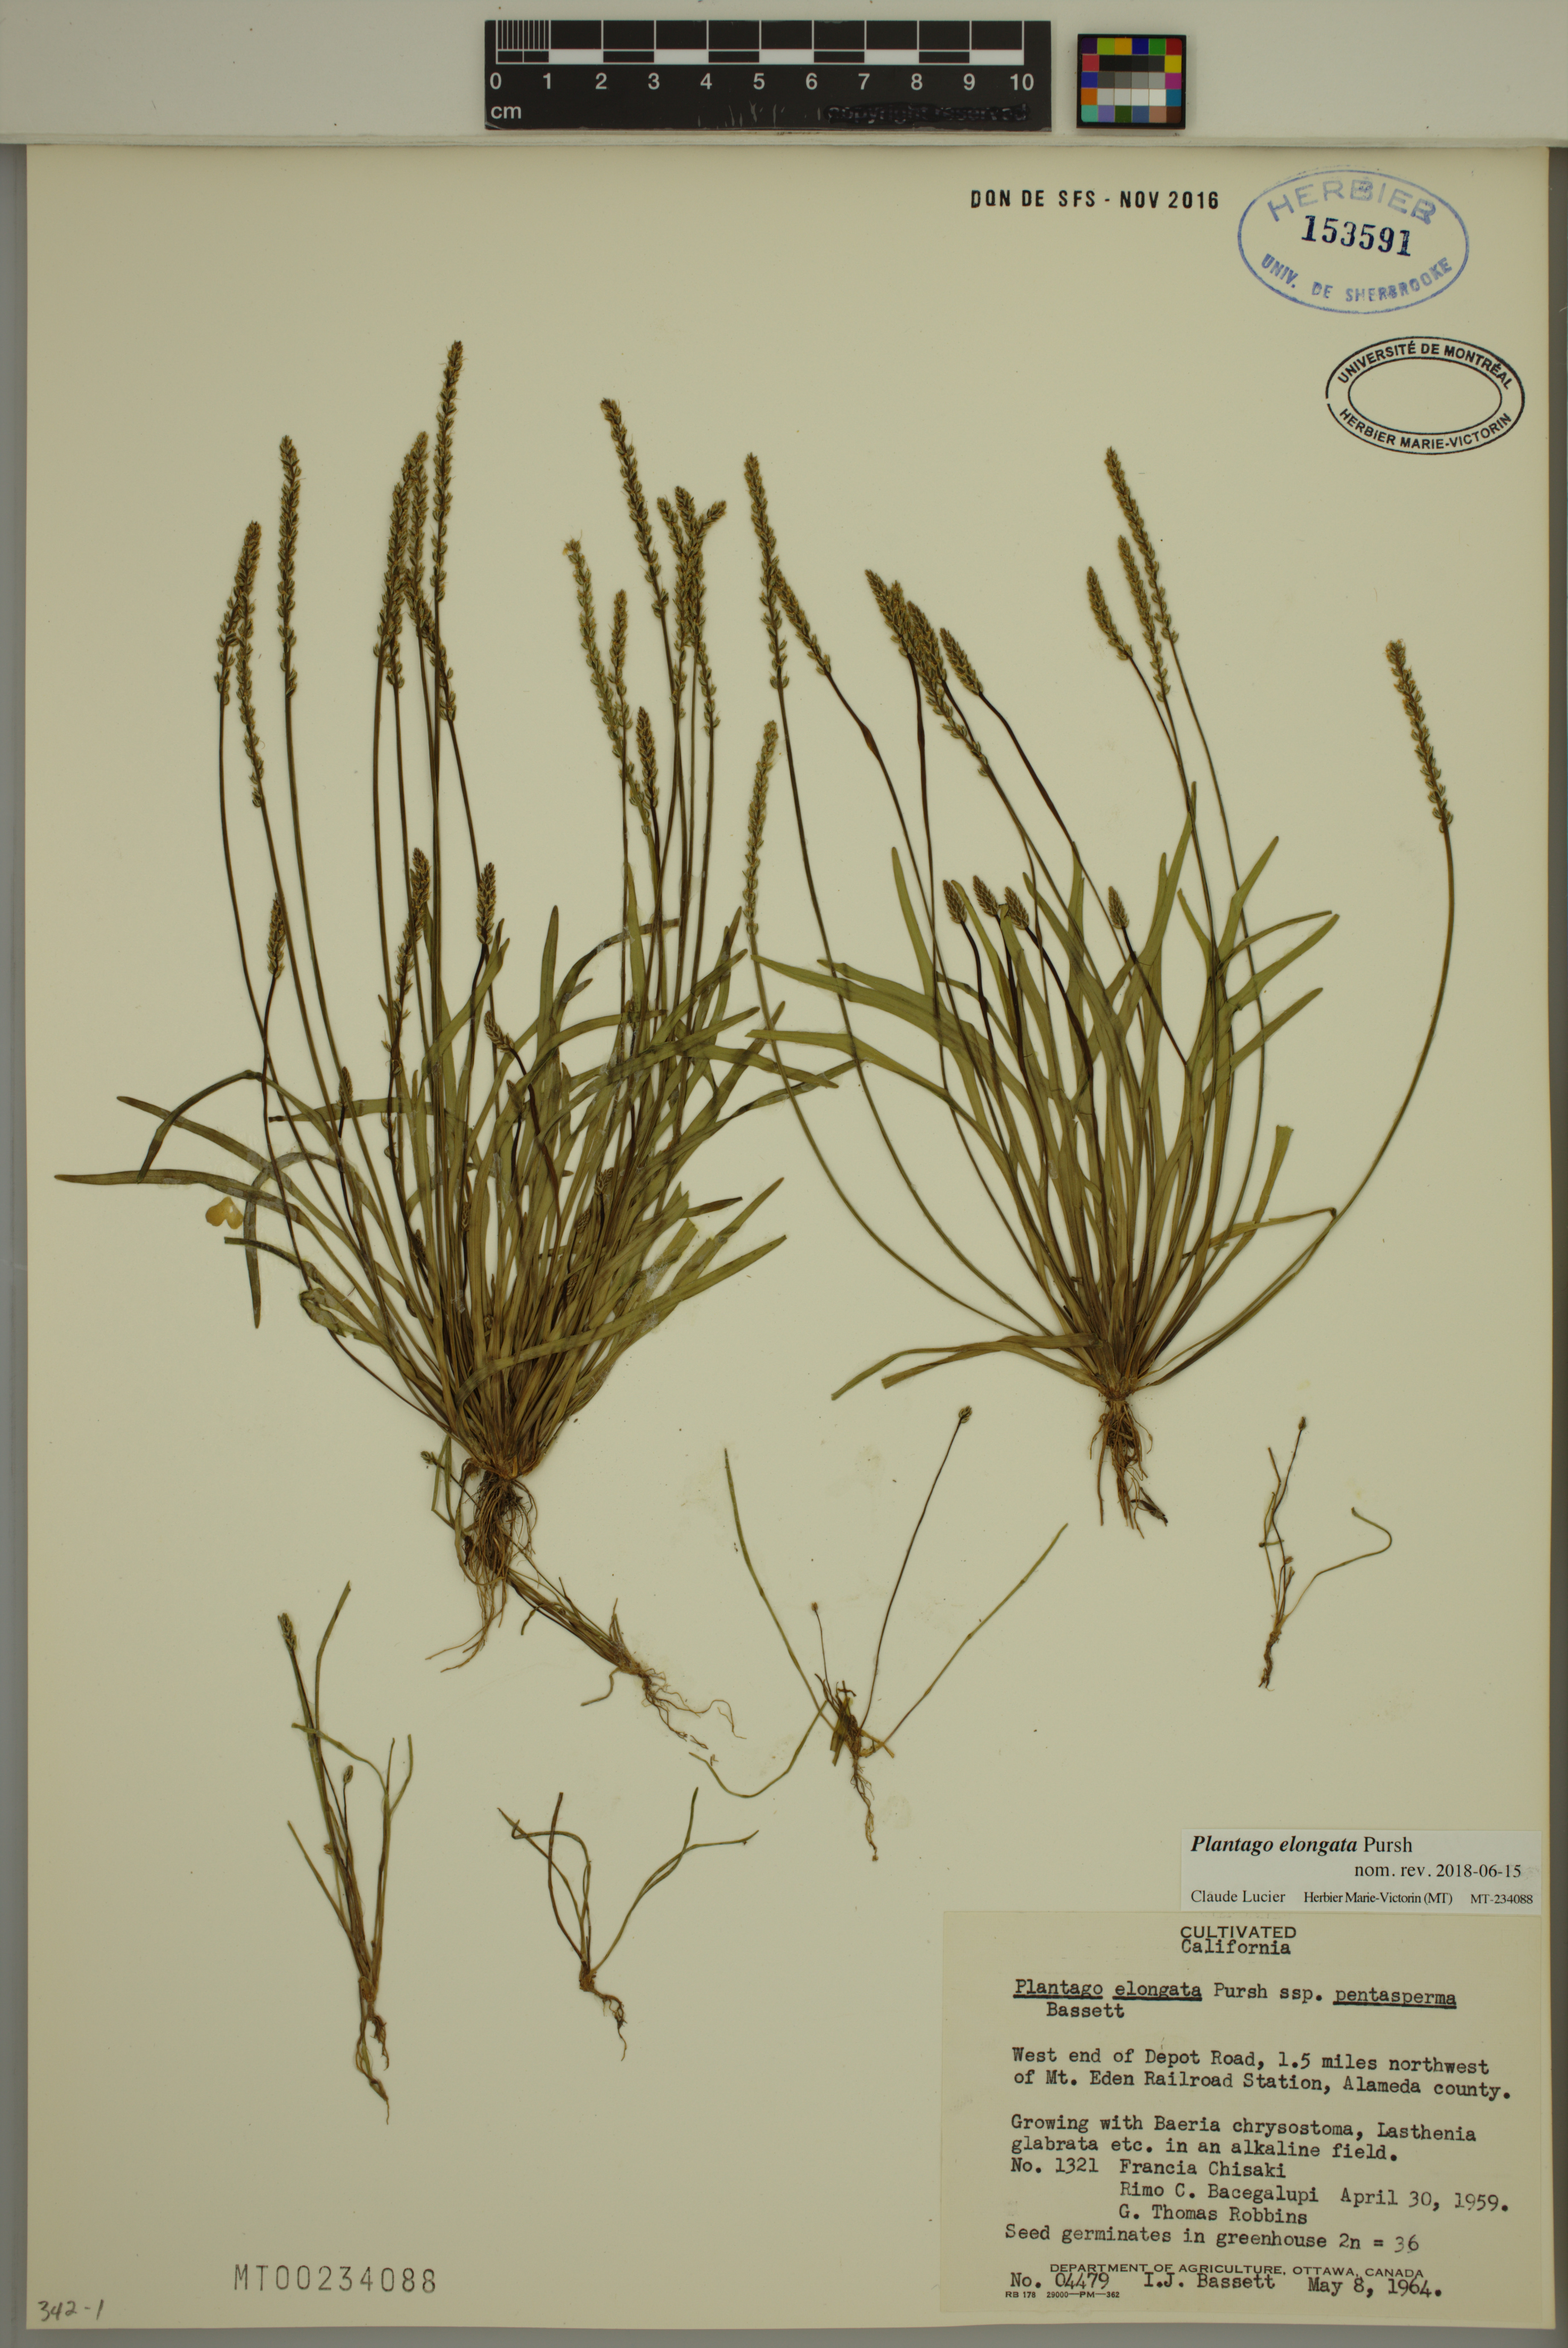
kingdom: Plantae
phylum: Tracheophyta
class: Magnoliopsida
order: Lamiales
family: Plantaginaceae
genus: Plantago
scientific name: Plantago elongata
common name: Linear-leaved plantain
